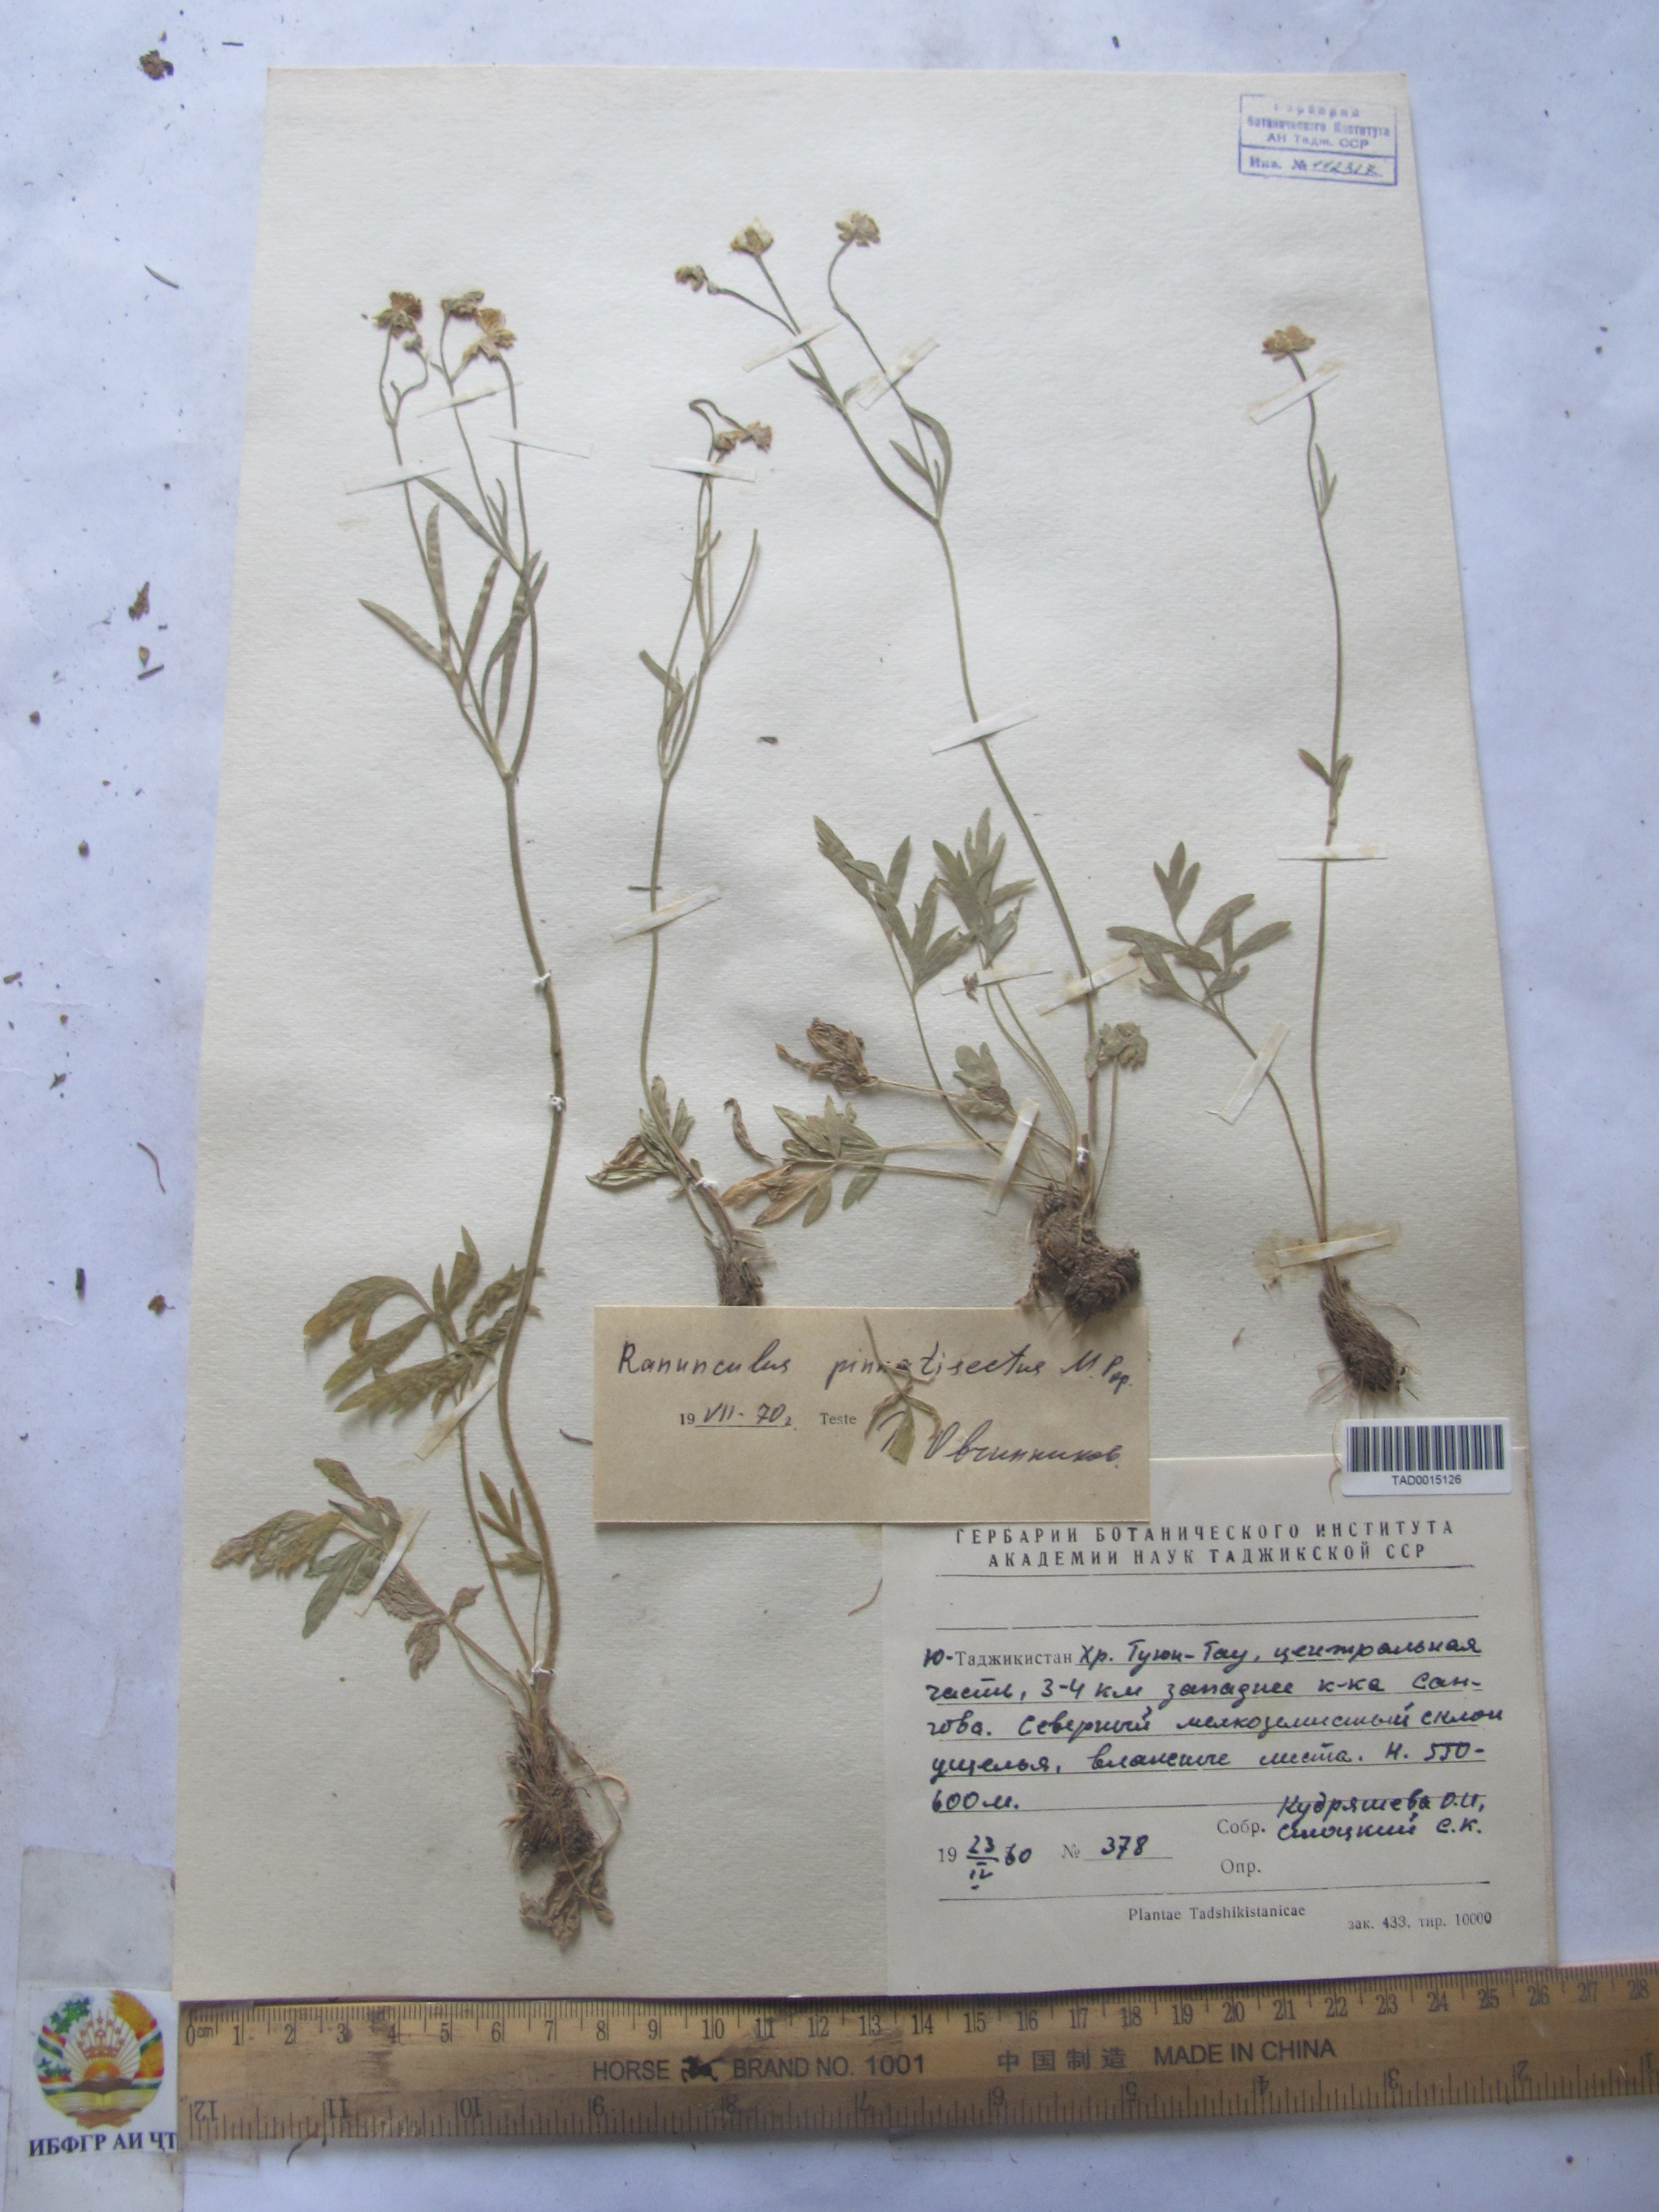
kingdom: Plantae
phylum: Tracheophyta
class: Magnoliopsida
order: Ranunculales
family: Ranunculaceae
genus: Ranunculus
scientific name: Ranunculus pinnatisectus
